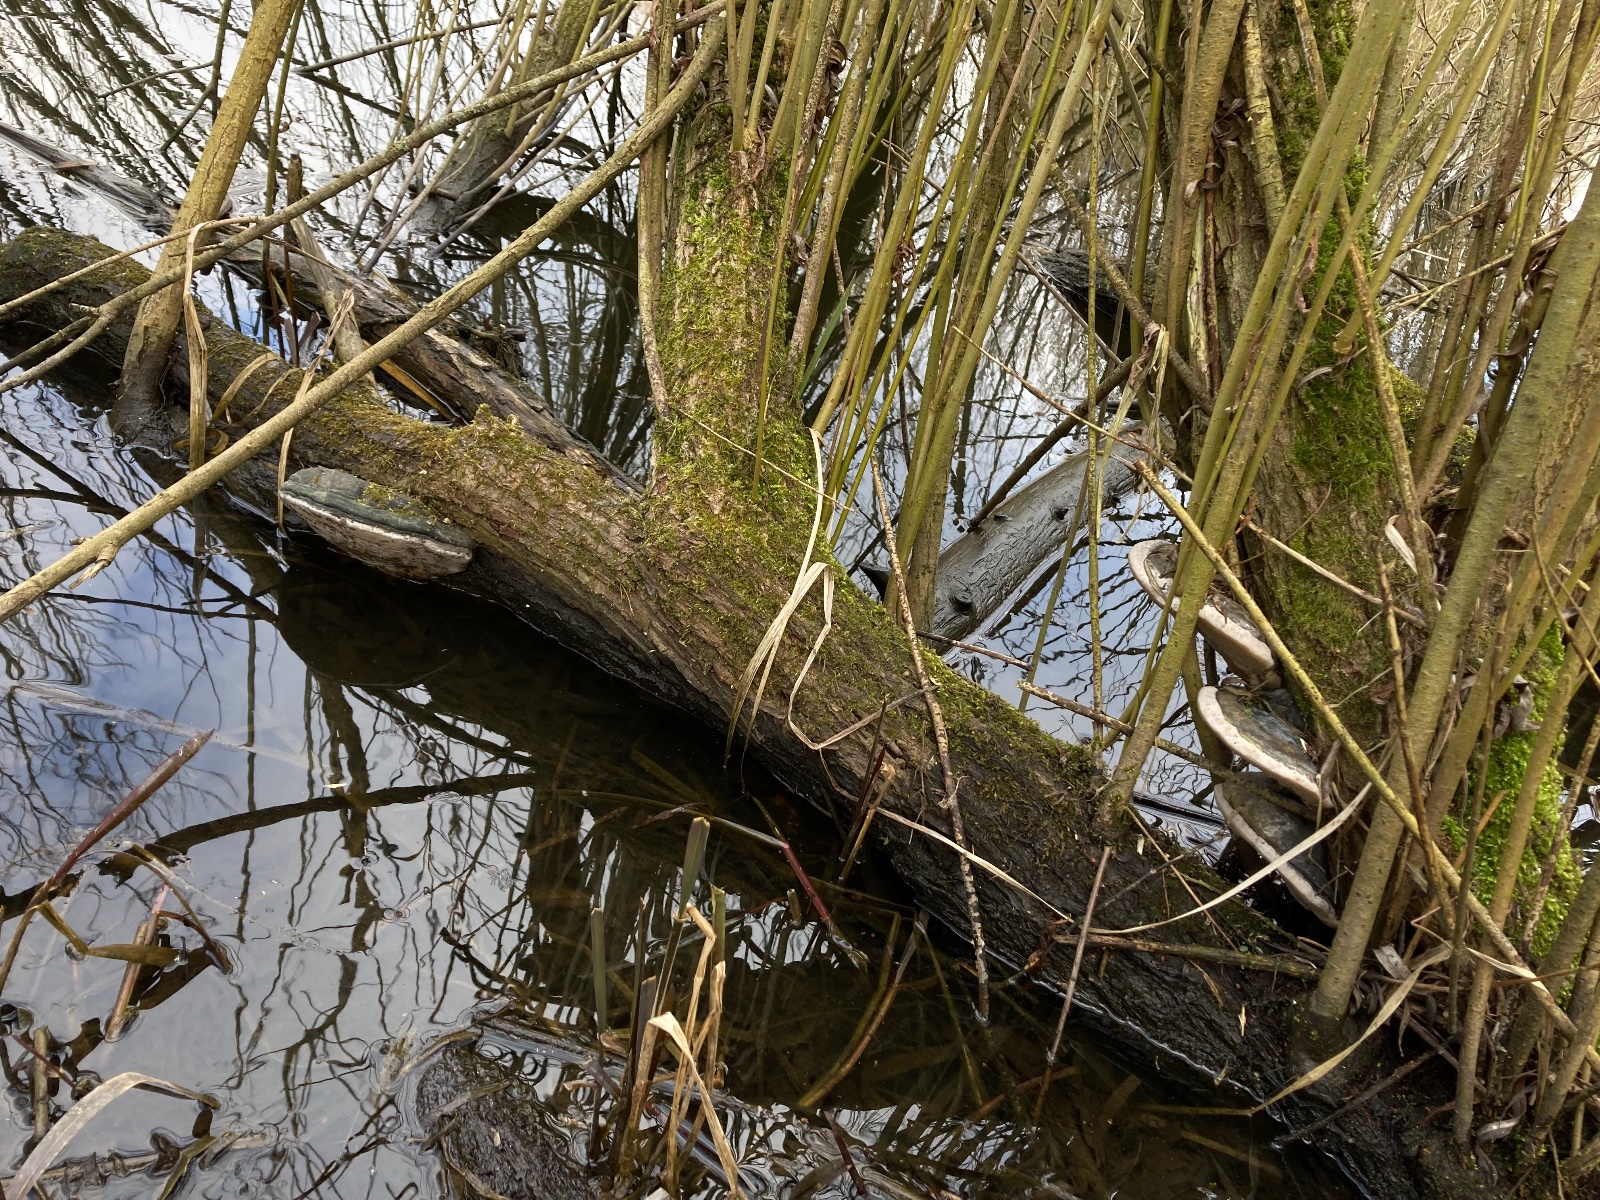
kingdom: Fungi
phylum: Basidiomycota
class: Agaricomycetes
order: Hymenochaetales
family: Hymenochaetaceae
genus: Phellinus
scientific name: Phellinus igniarius
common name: almindelig ildporesvamp
